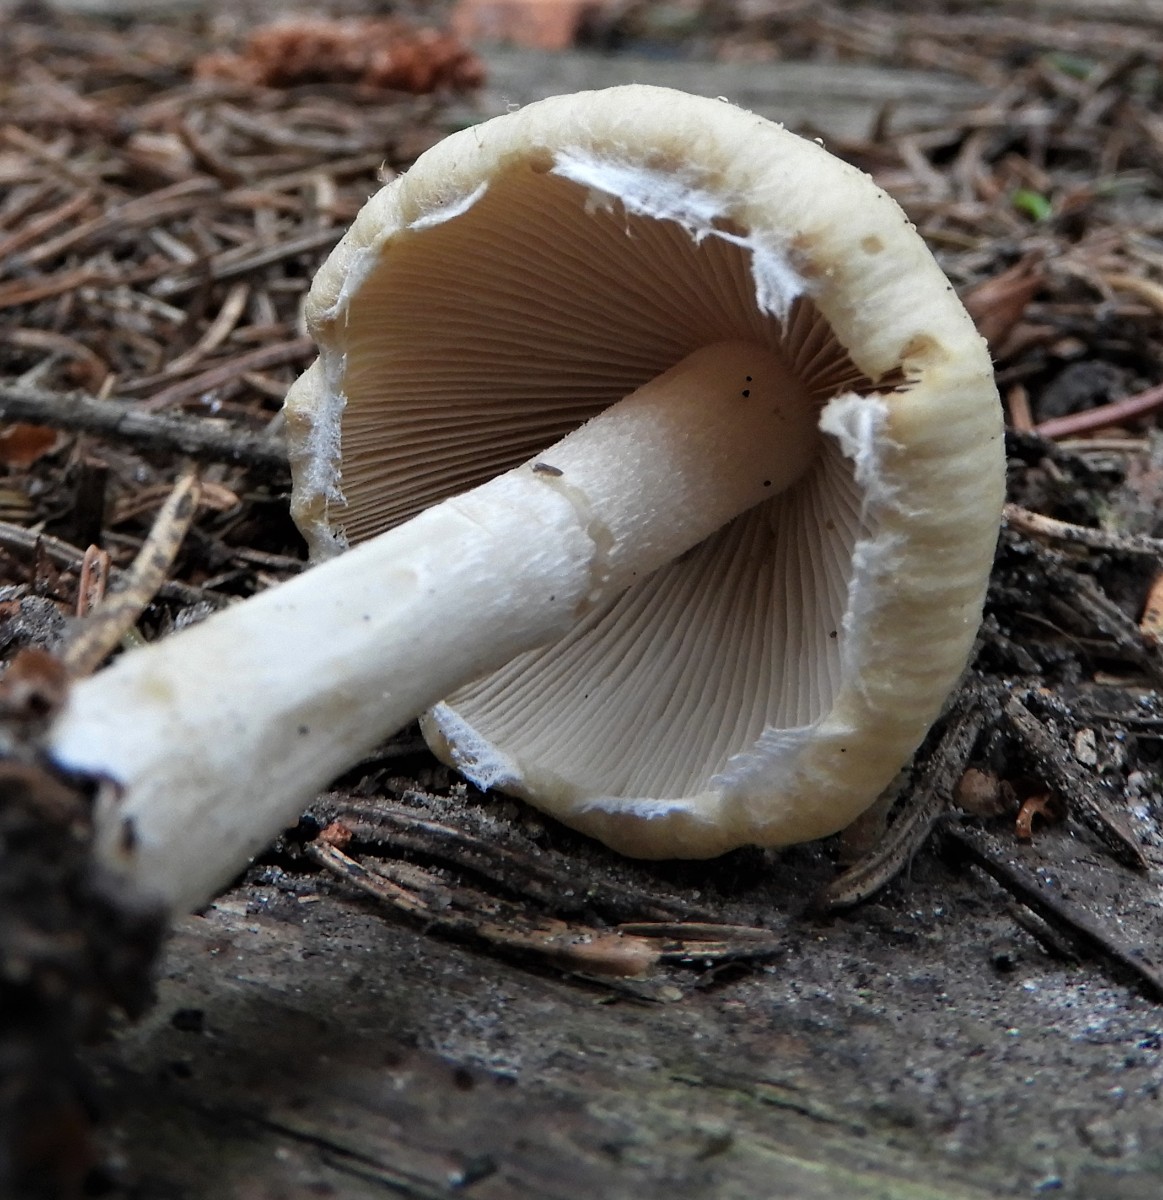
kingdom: Fungi
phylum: Basidiomycota
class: Agaricomycetes
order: Agaricales
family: Psathyrellaceae
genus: Candolleomyces
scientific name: Candolleomyces candolleanus
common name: Candolles mørkhat
